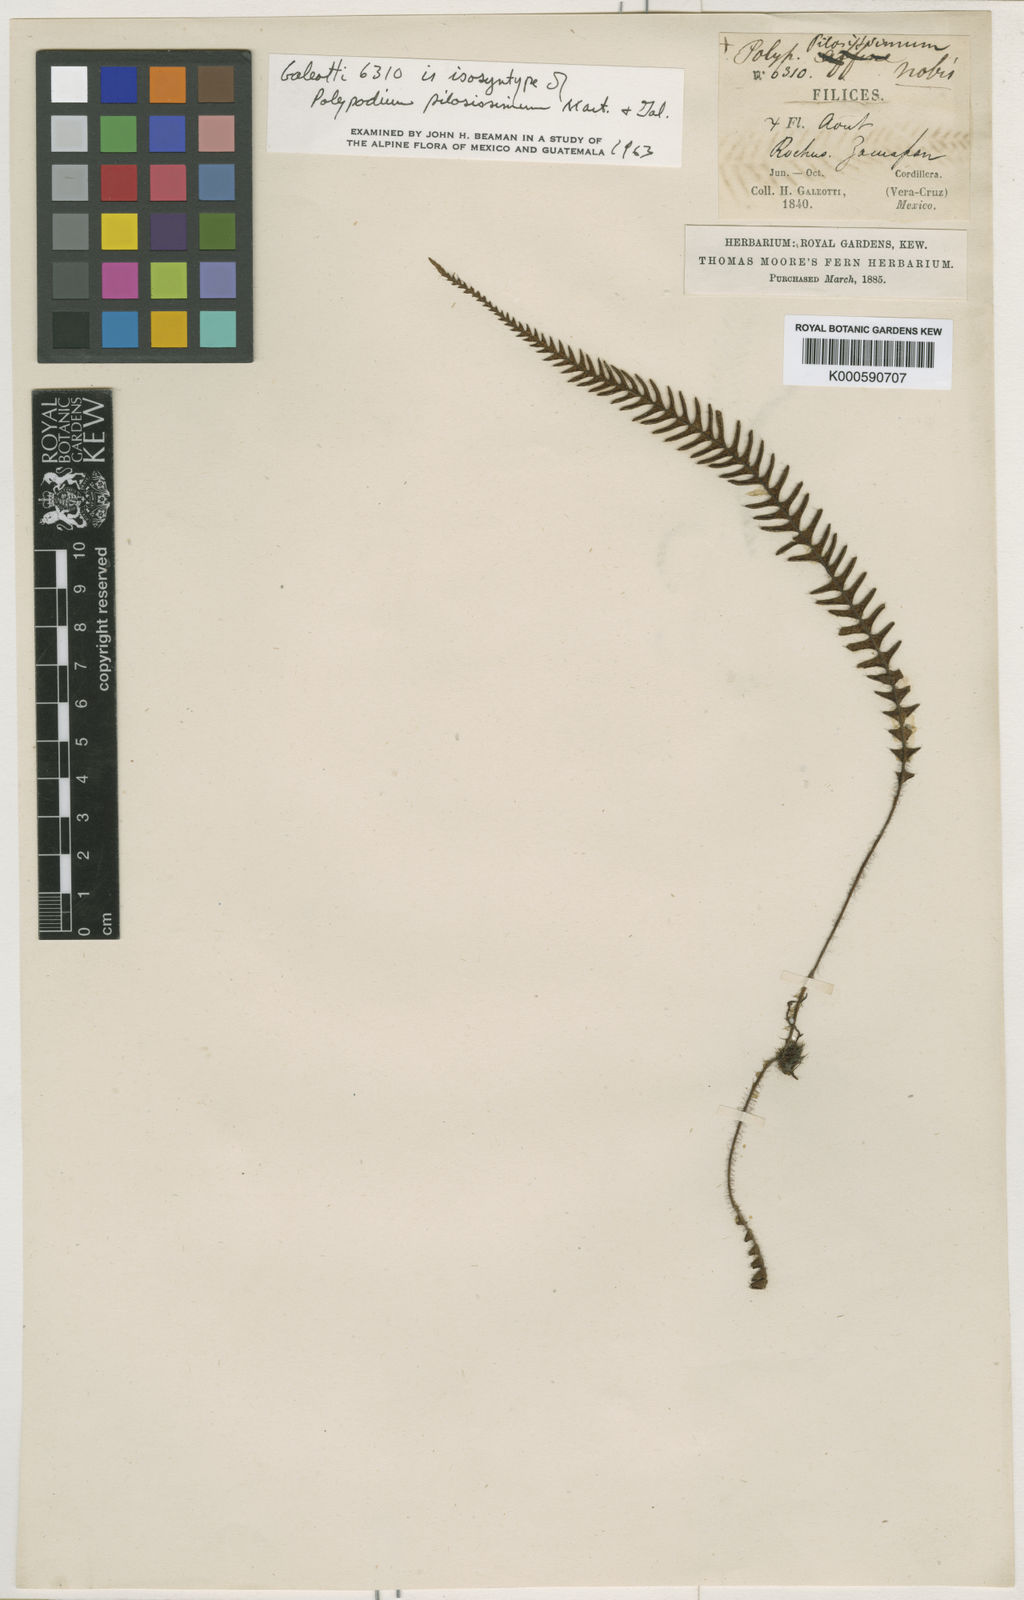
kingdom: Plantae
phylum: Tracheophyta
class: Polypodiopsida
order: Polypodiales
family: Polypodiaceae
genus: Melpomene
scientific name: Melpomene
